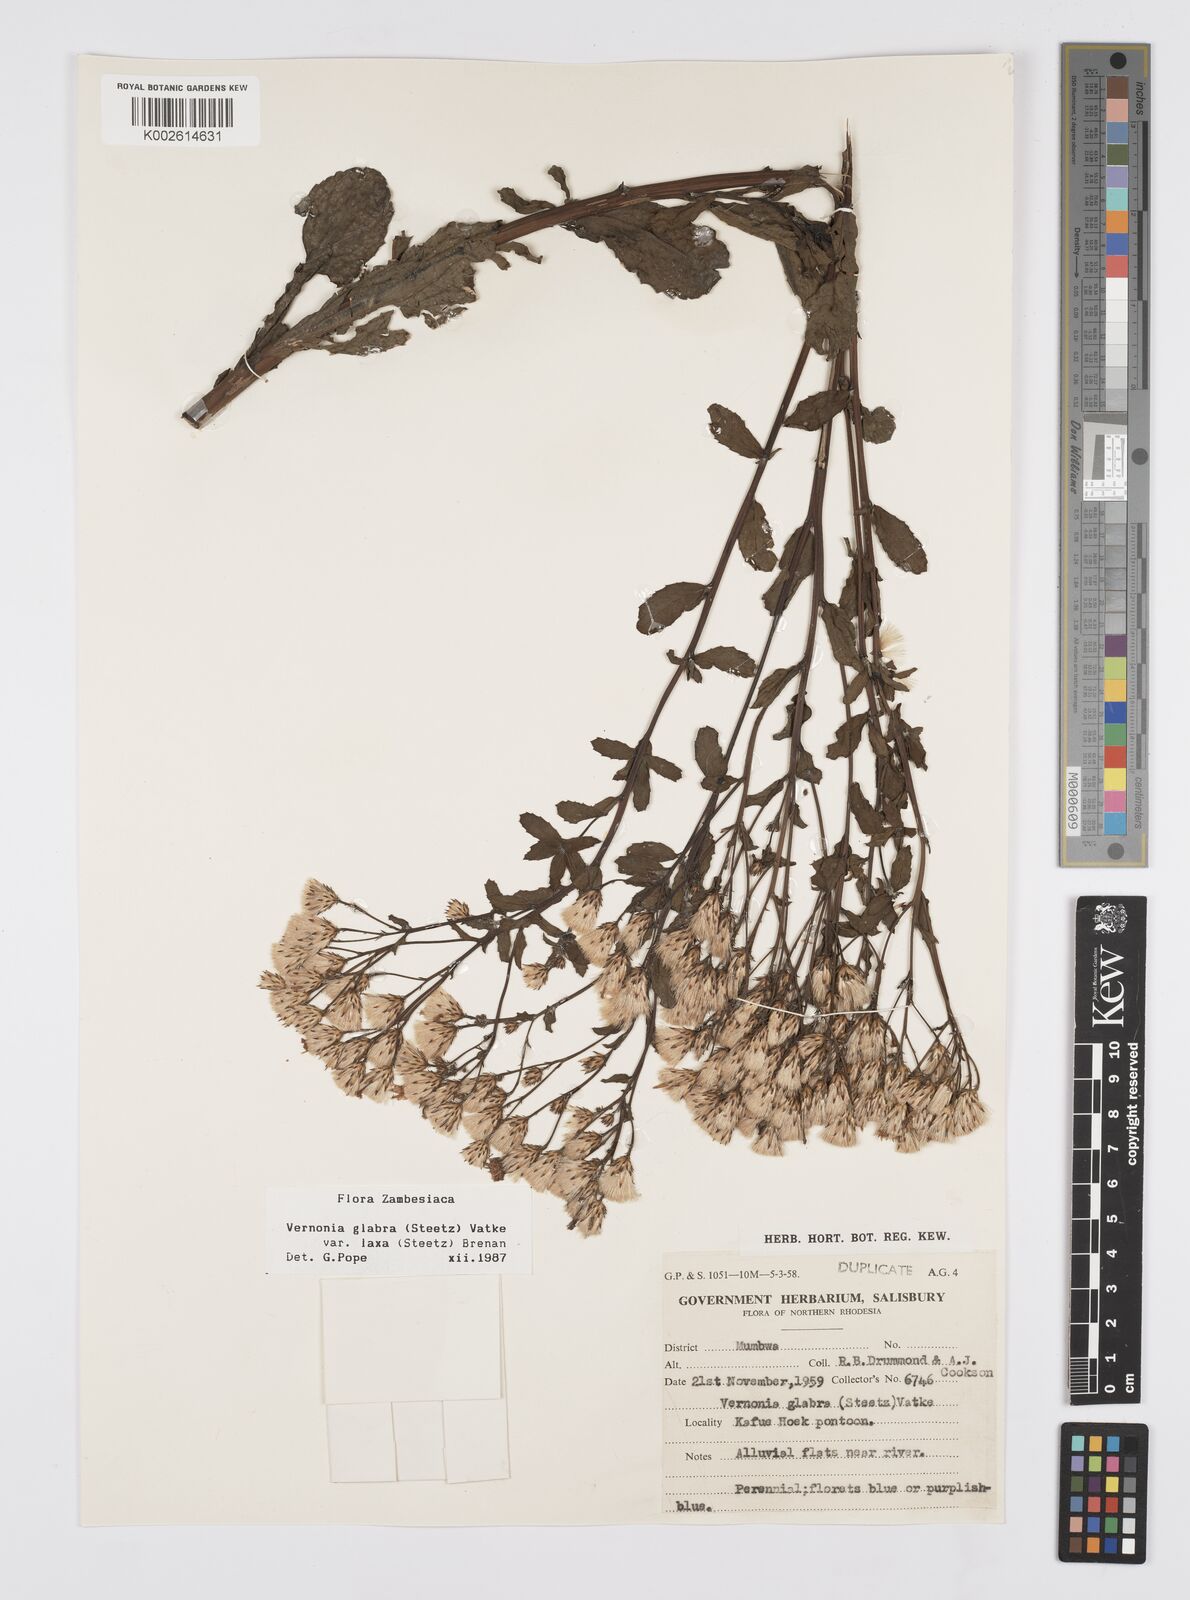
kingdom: Plantae
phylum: Tracheophyta
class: Magnoliopsida
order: Asterales
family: Asteraceae
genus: Linzia
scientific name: Linzia glabra
